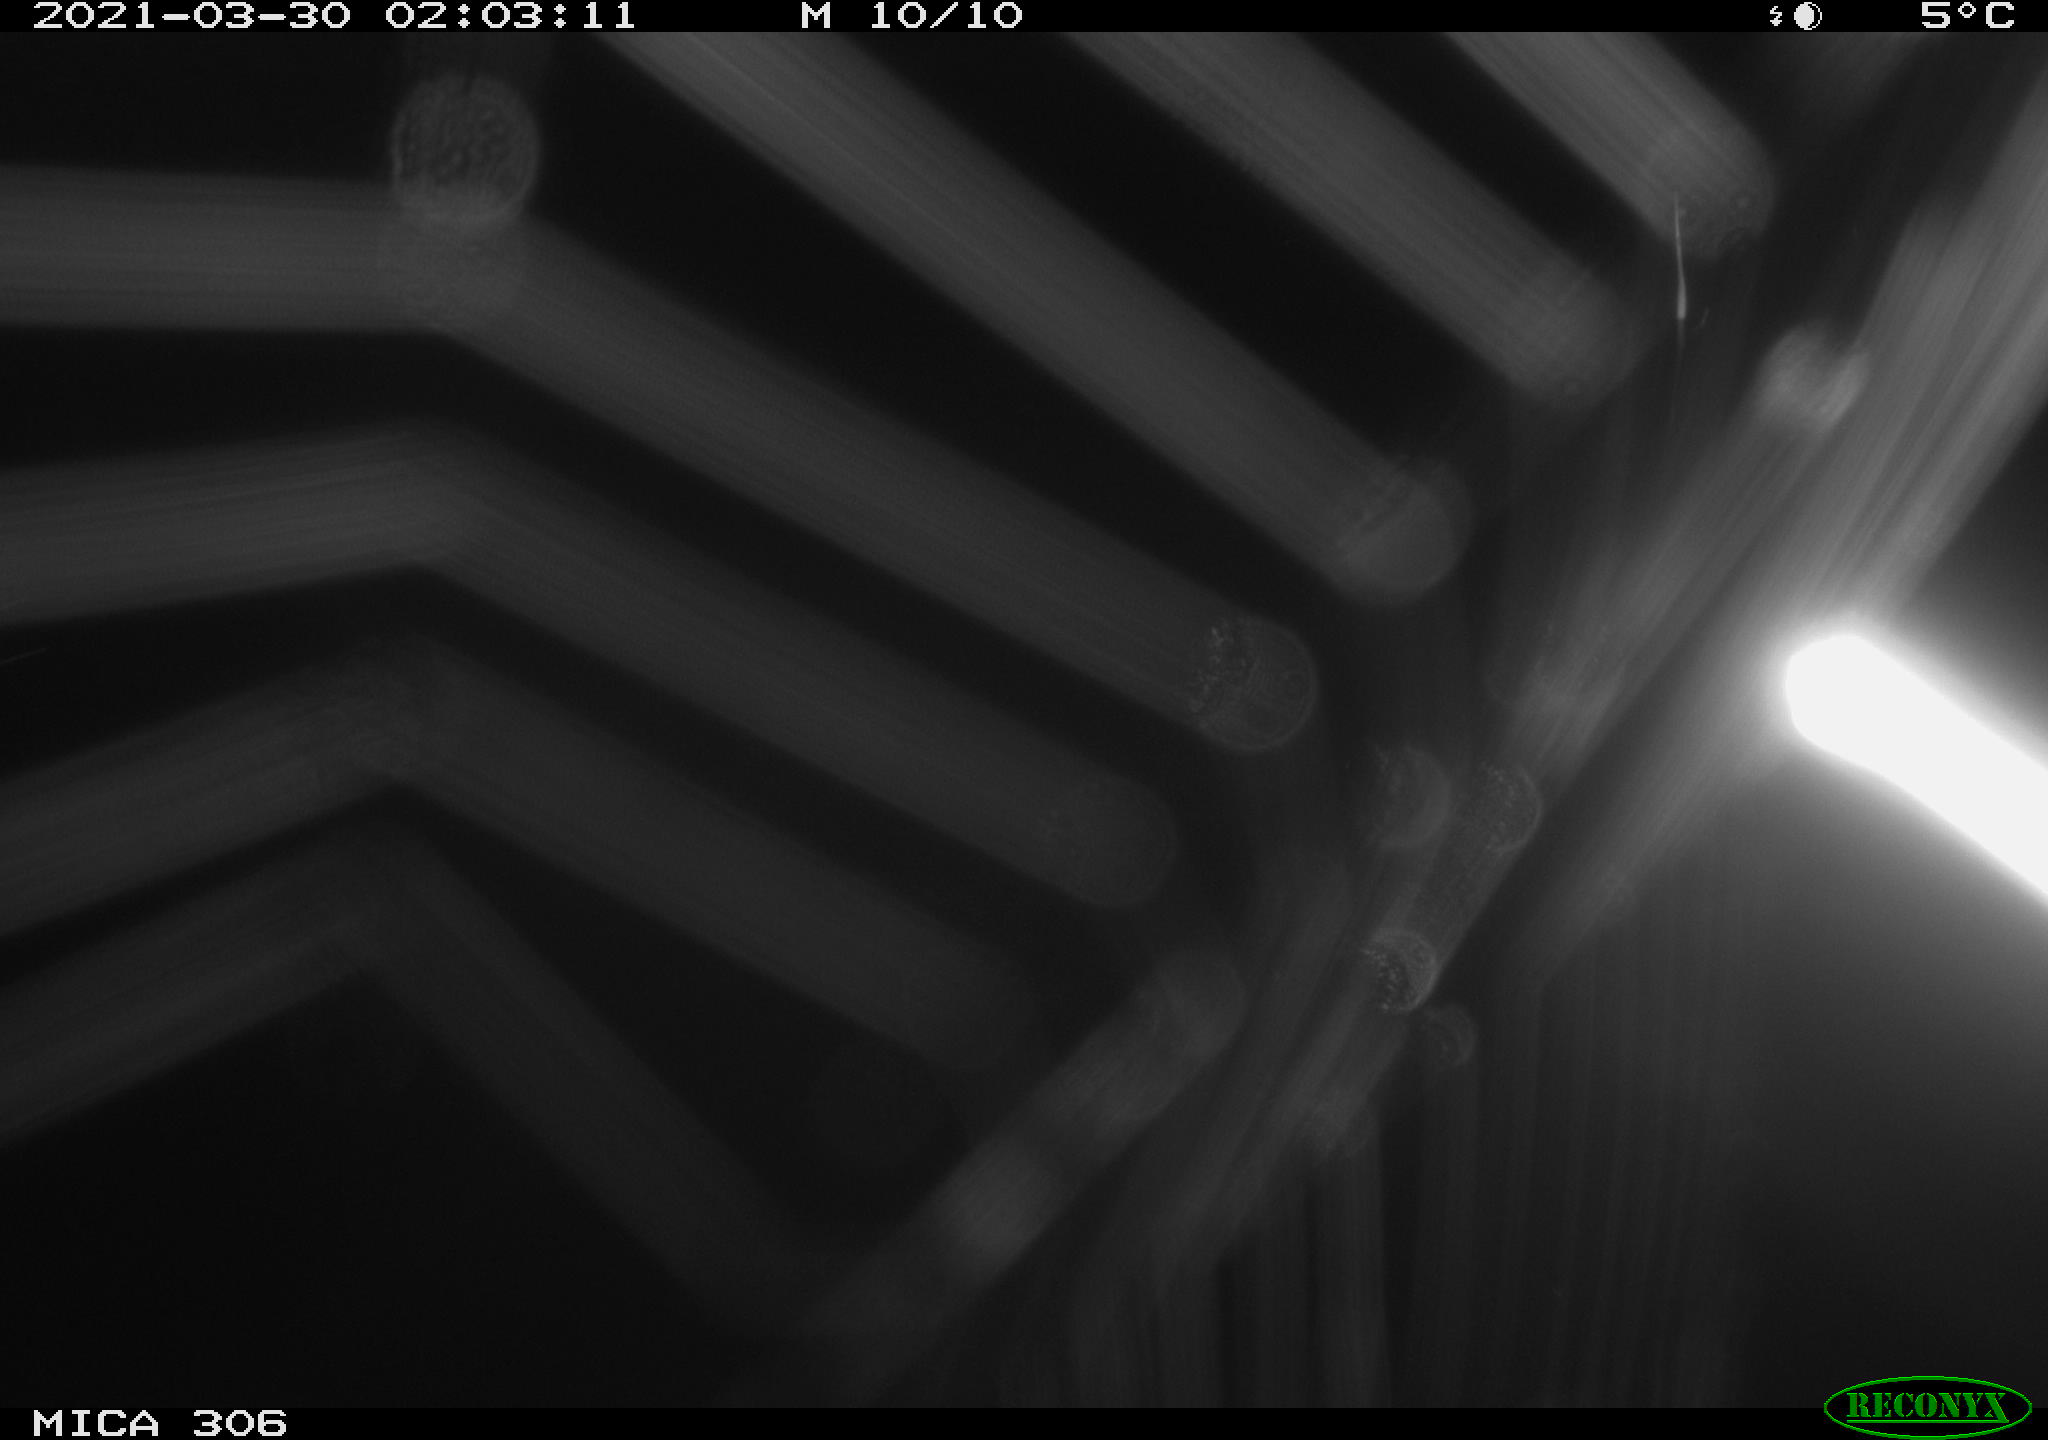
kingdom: Animalia
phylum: Chordata
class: Mammalia
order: Rodentia
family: Cricetidae
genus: Ondatra
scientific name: Ondatra zibethicus
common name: Muskrat
